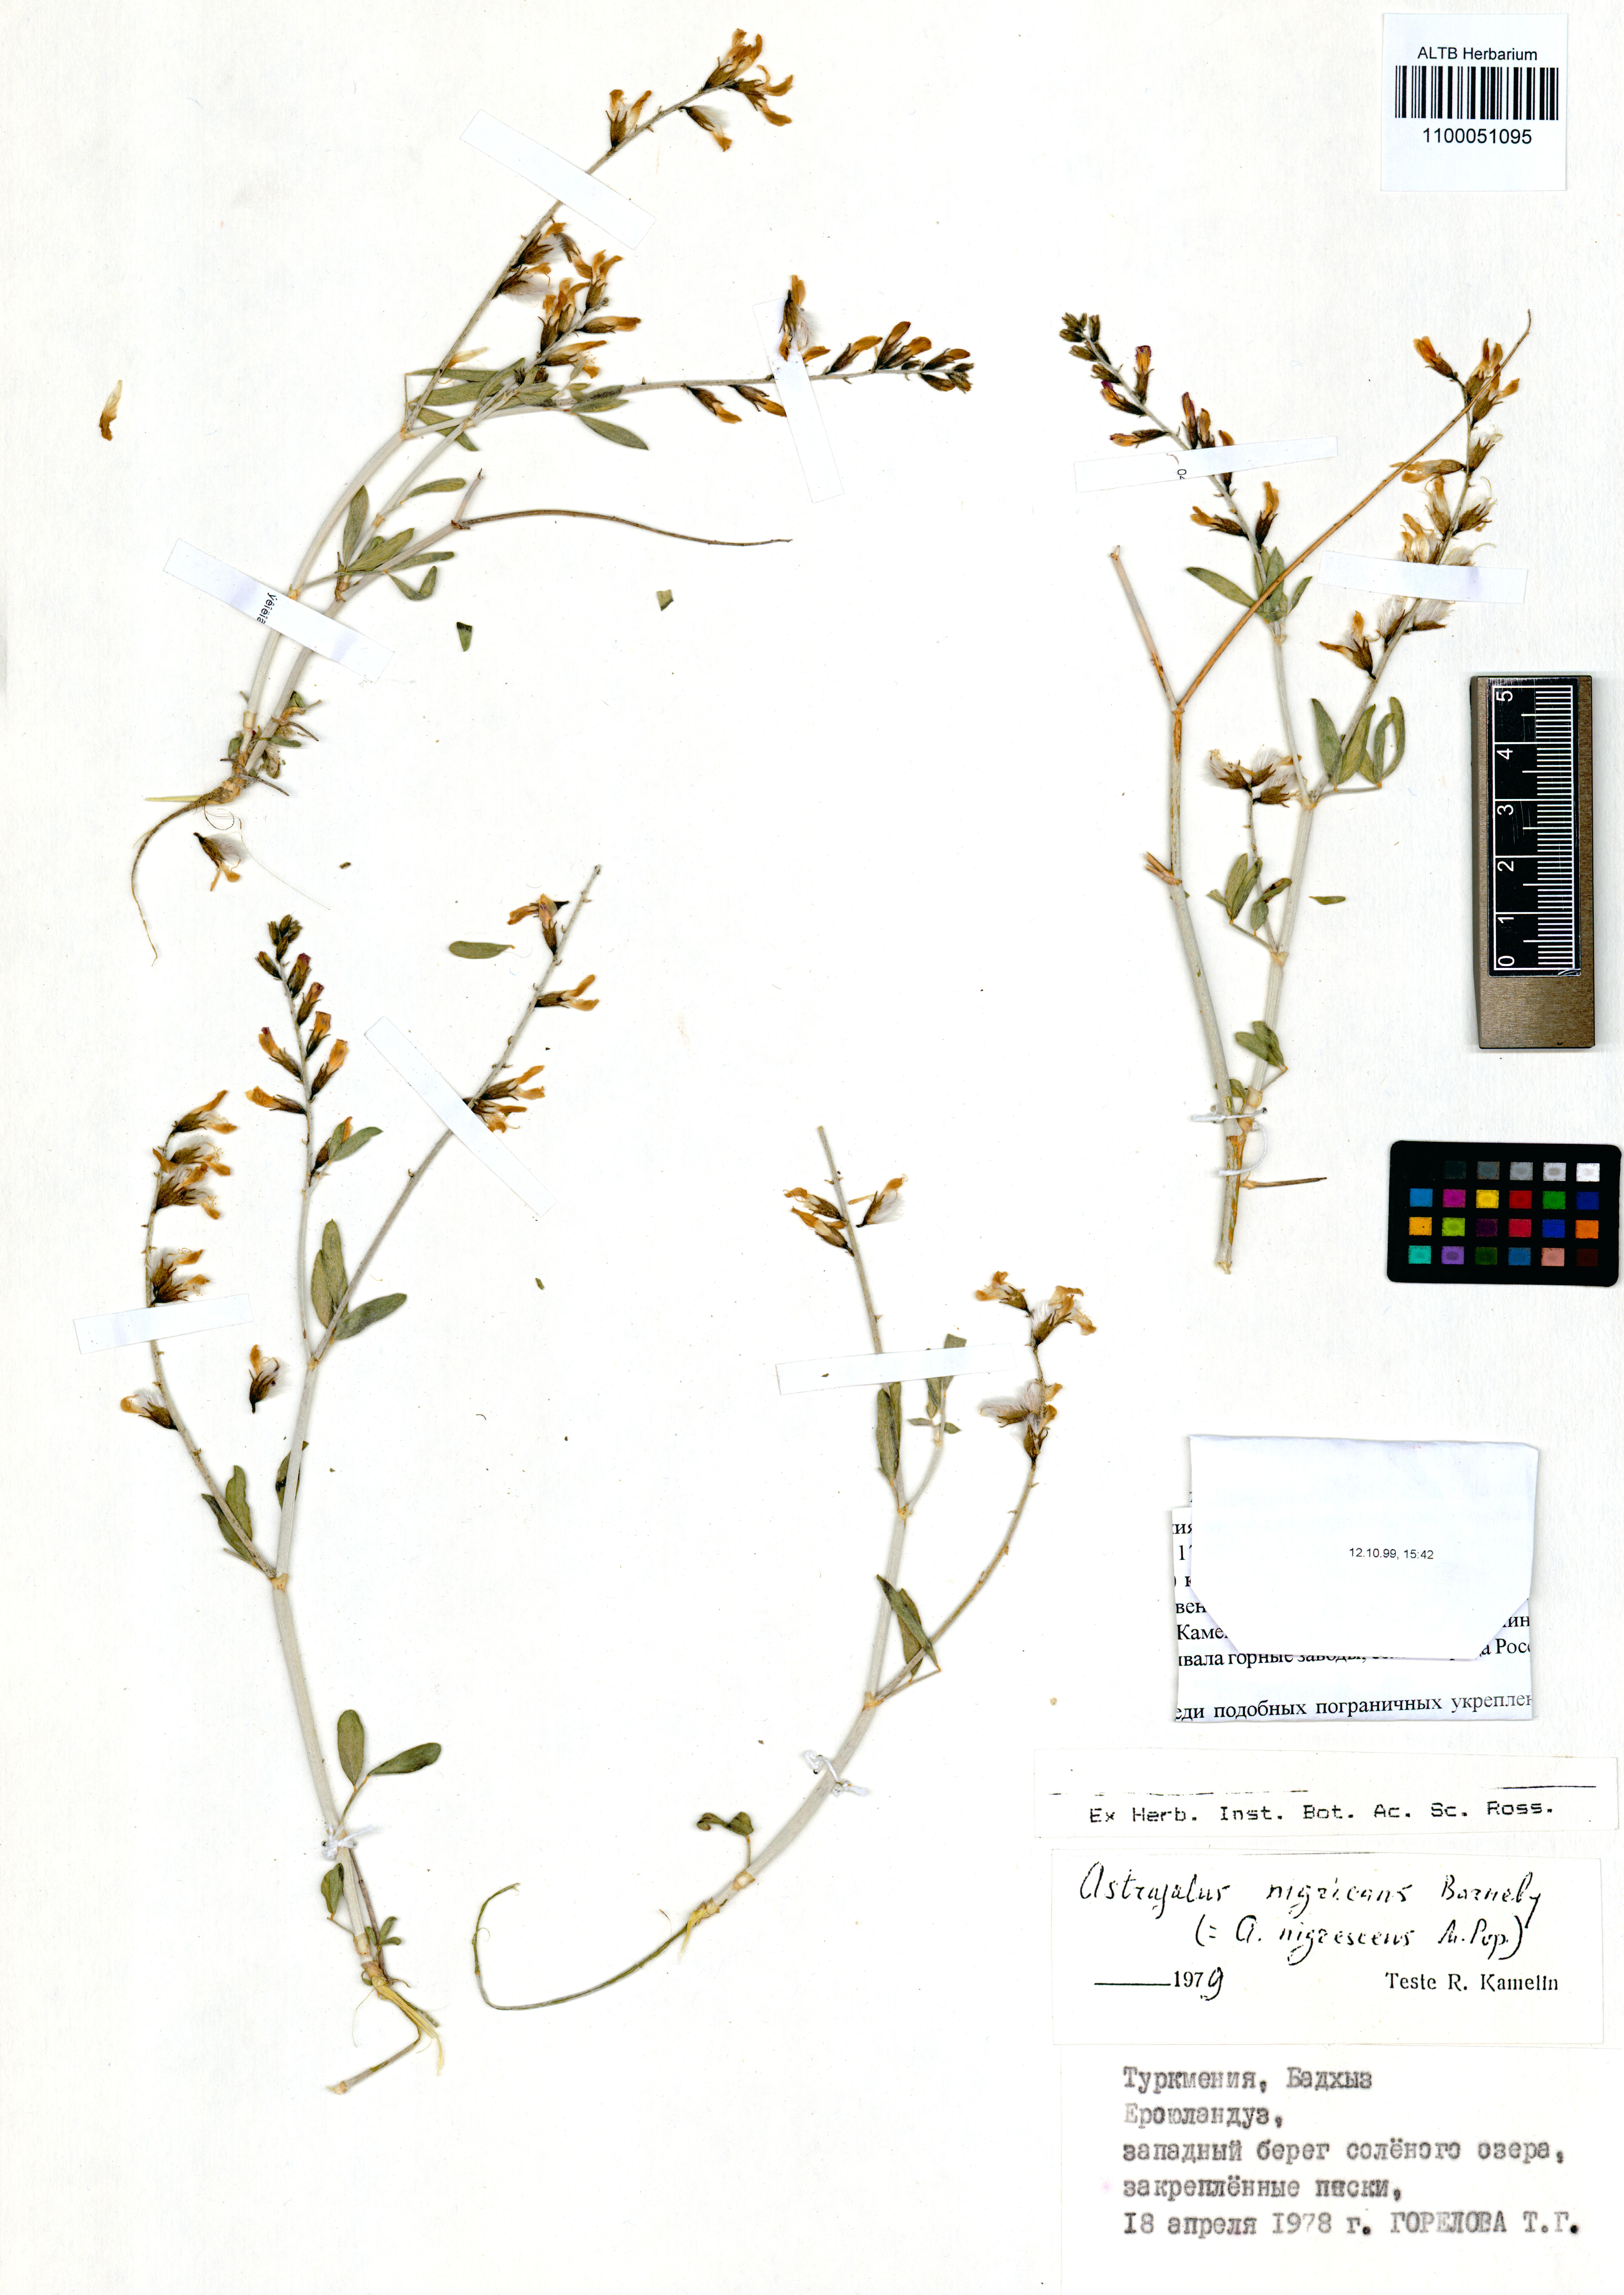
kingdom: Plantae
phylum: Tracheophyta
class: Magnoliopsida
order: Fabales
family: Fabaceae
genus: Astragalus
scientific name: Astragalus nigricans
